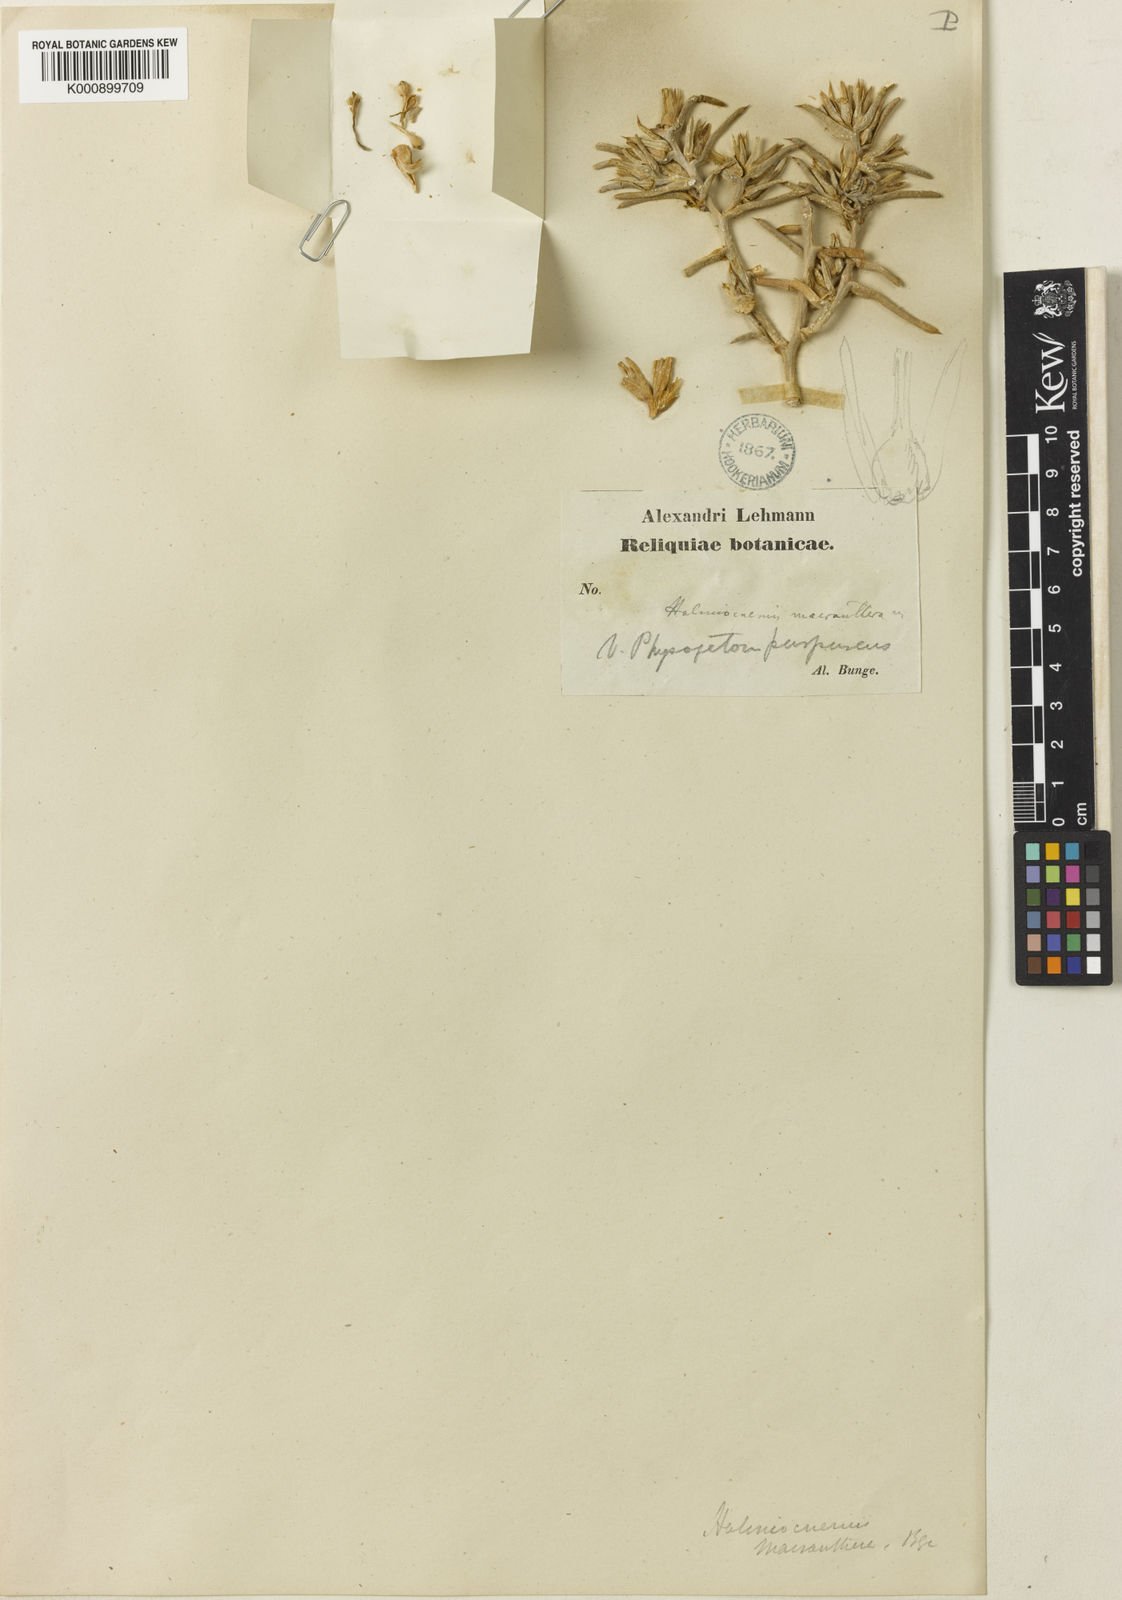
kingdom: Plantae
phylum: Tracheophyta
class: Magnoliopsida
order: Caryophyllales
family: Amaranthaceae
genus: Halimocnemis
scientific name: Halimocnemis macranthera
